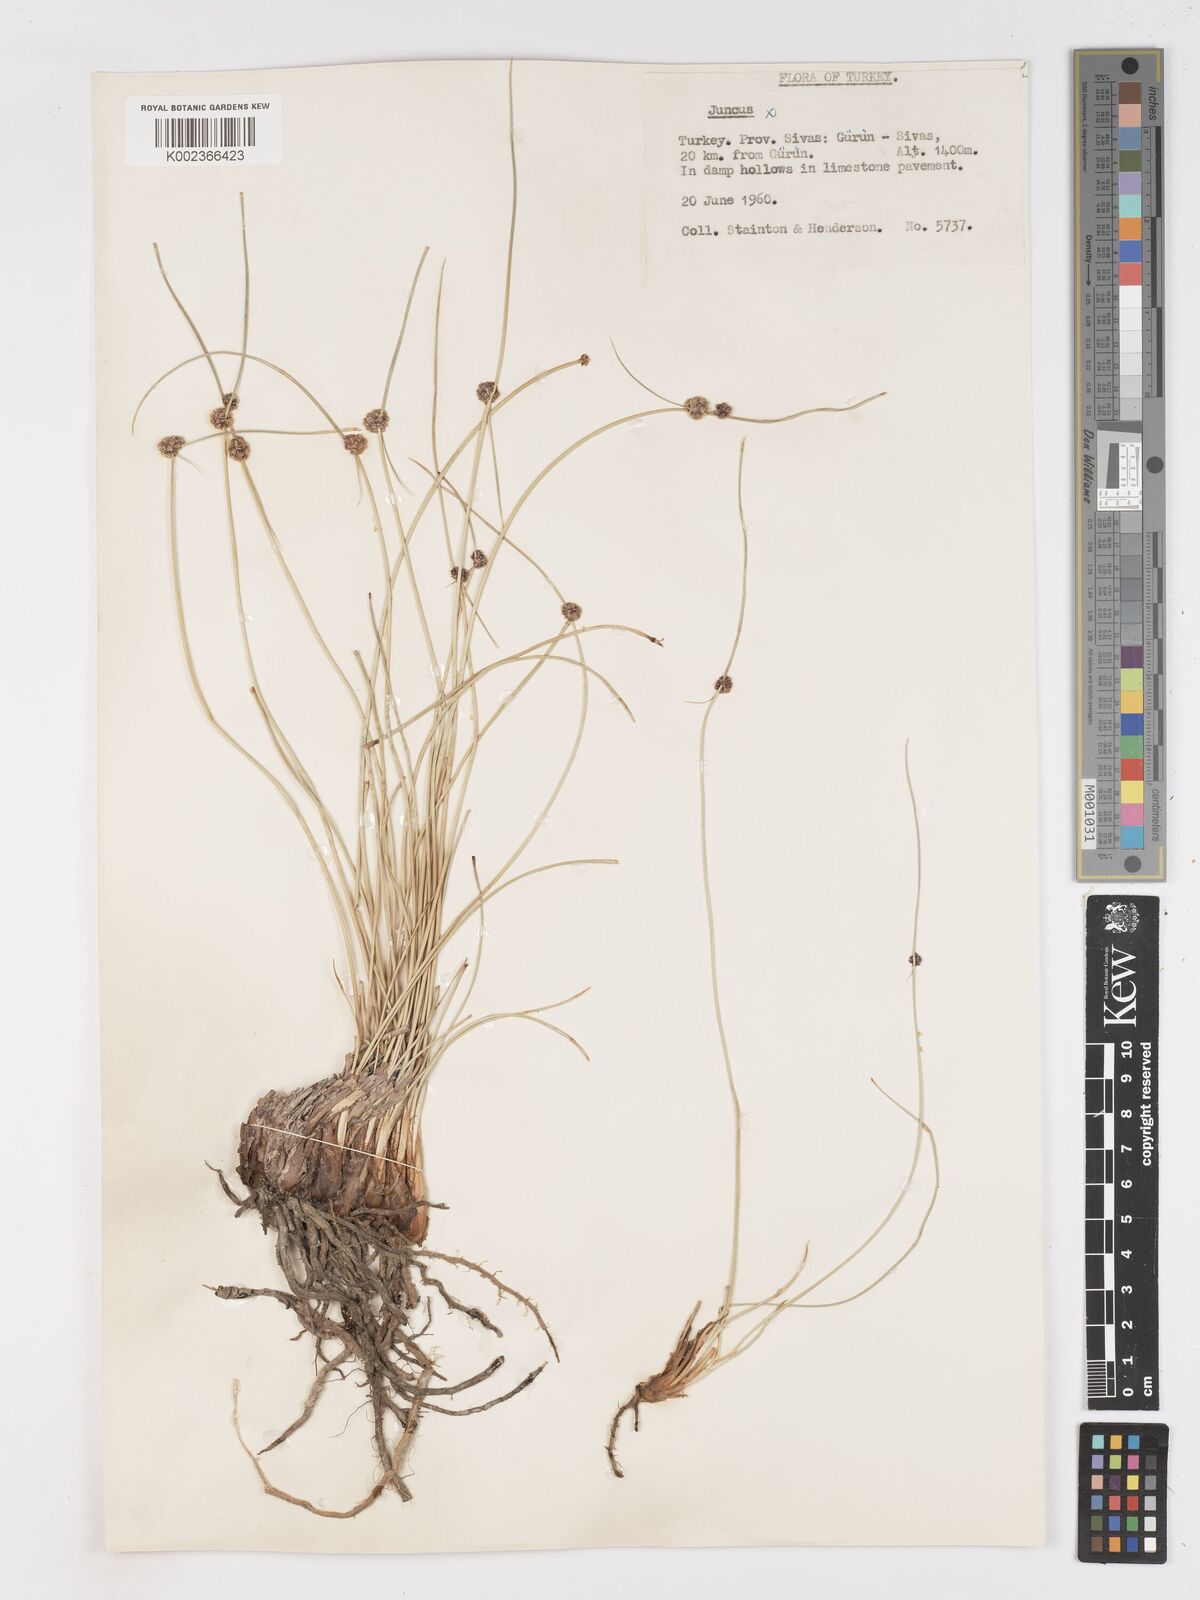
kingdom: Plantae
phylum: Tracheophyta
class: Liliopsida
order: Poales
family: Cyperaceae
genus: Scirpoides
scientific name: Scirpoides holoschoenus
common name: Round-headed club-rush
